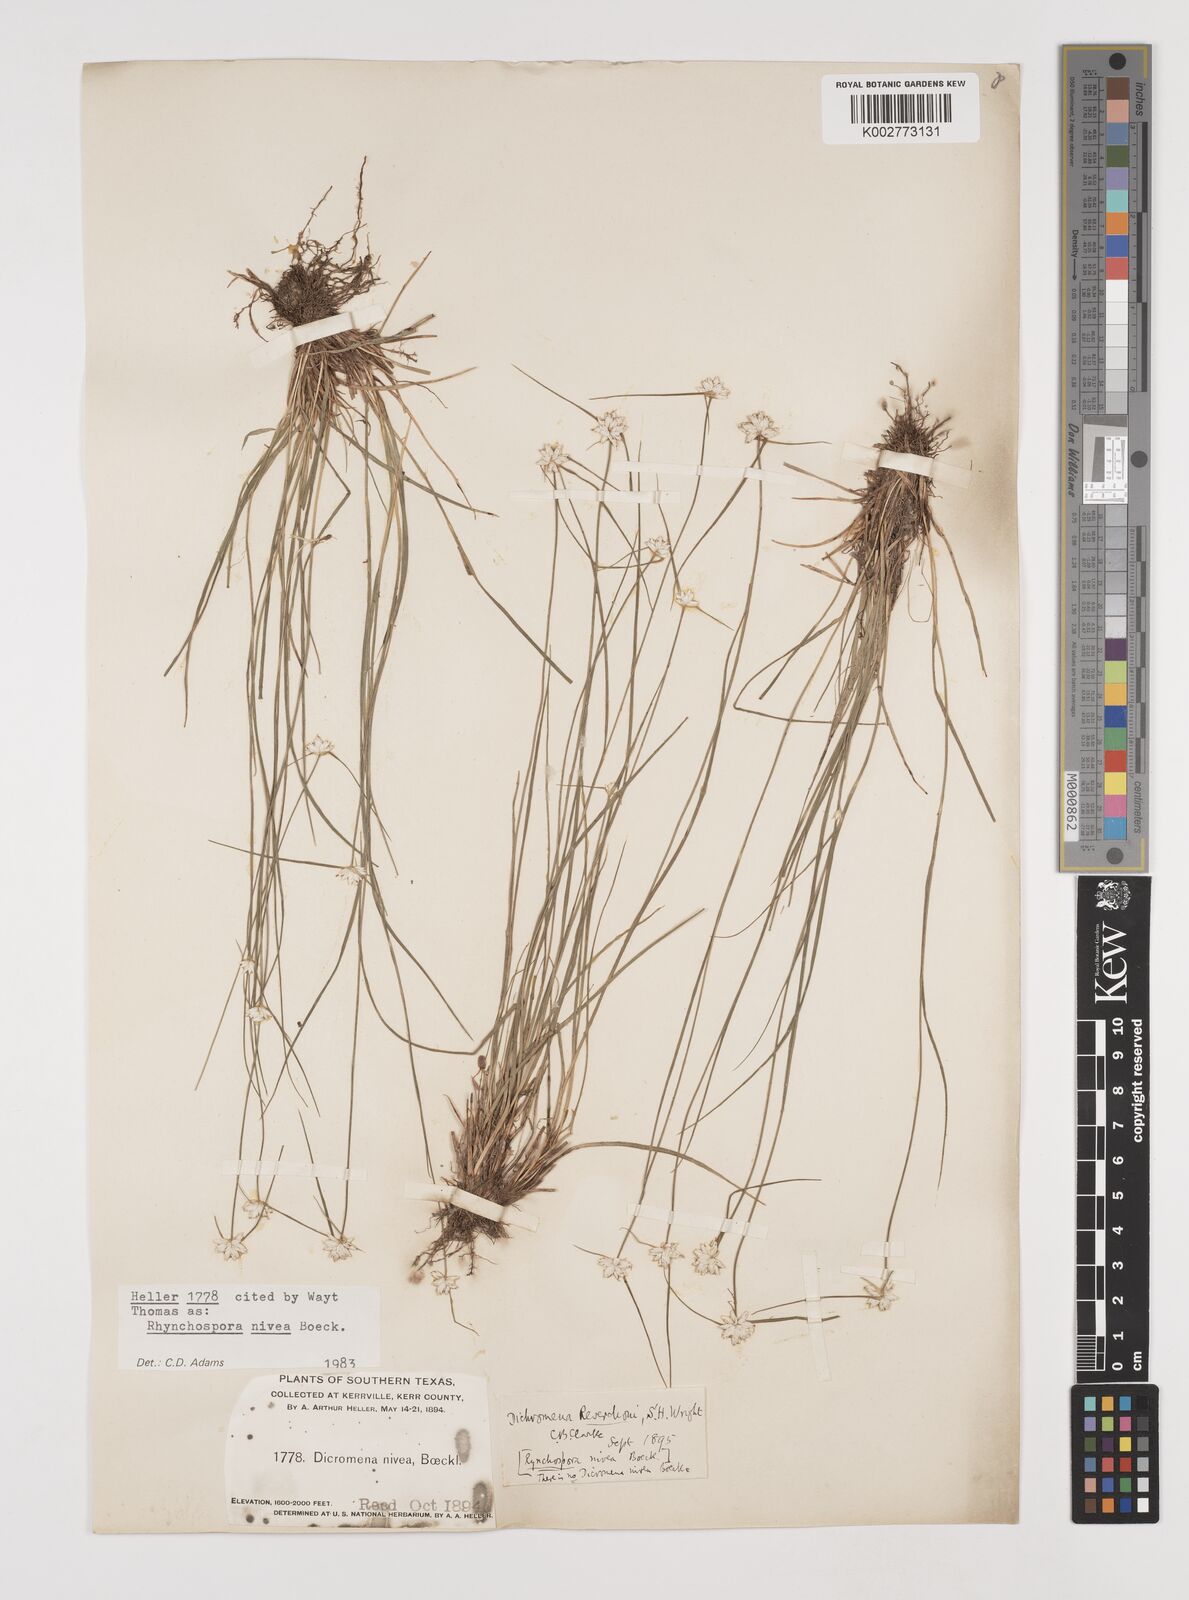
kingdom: Plantae
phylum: Tracheophyta
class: Liliopsida
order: Poales
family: Cyperaceae
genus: Rhynchospora
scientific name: Rhynchospora nivea
